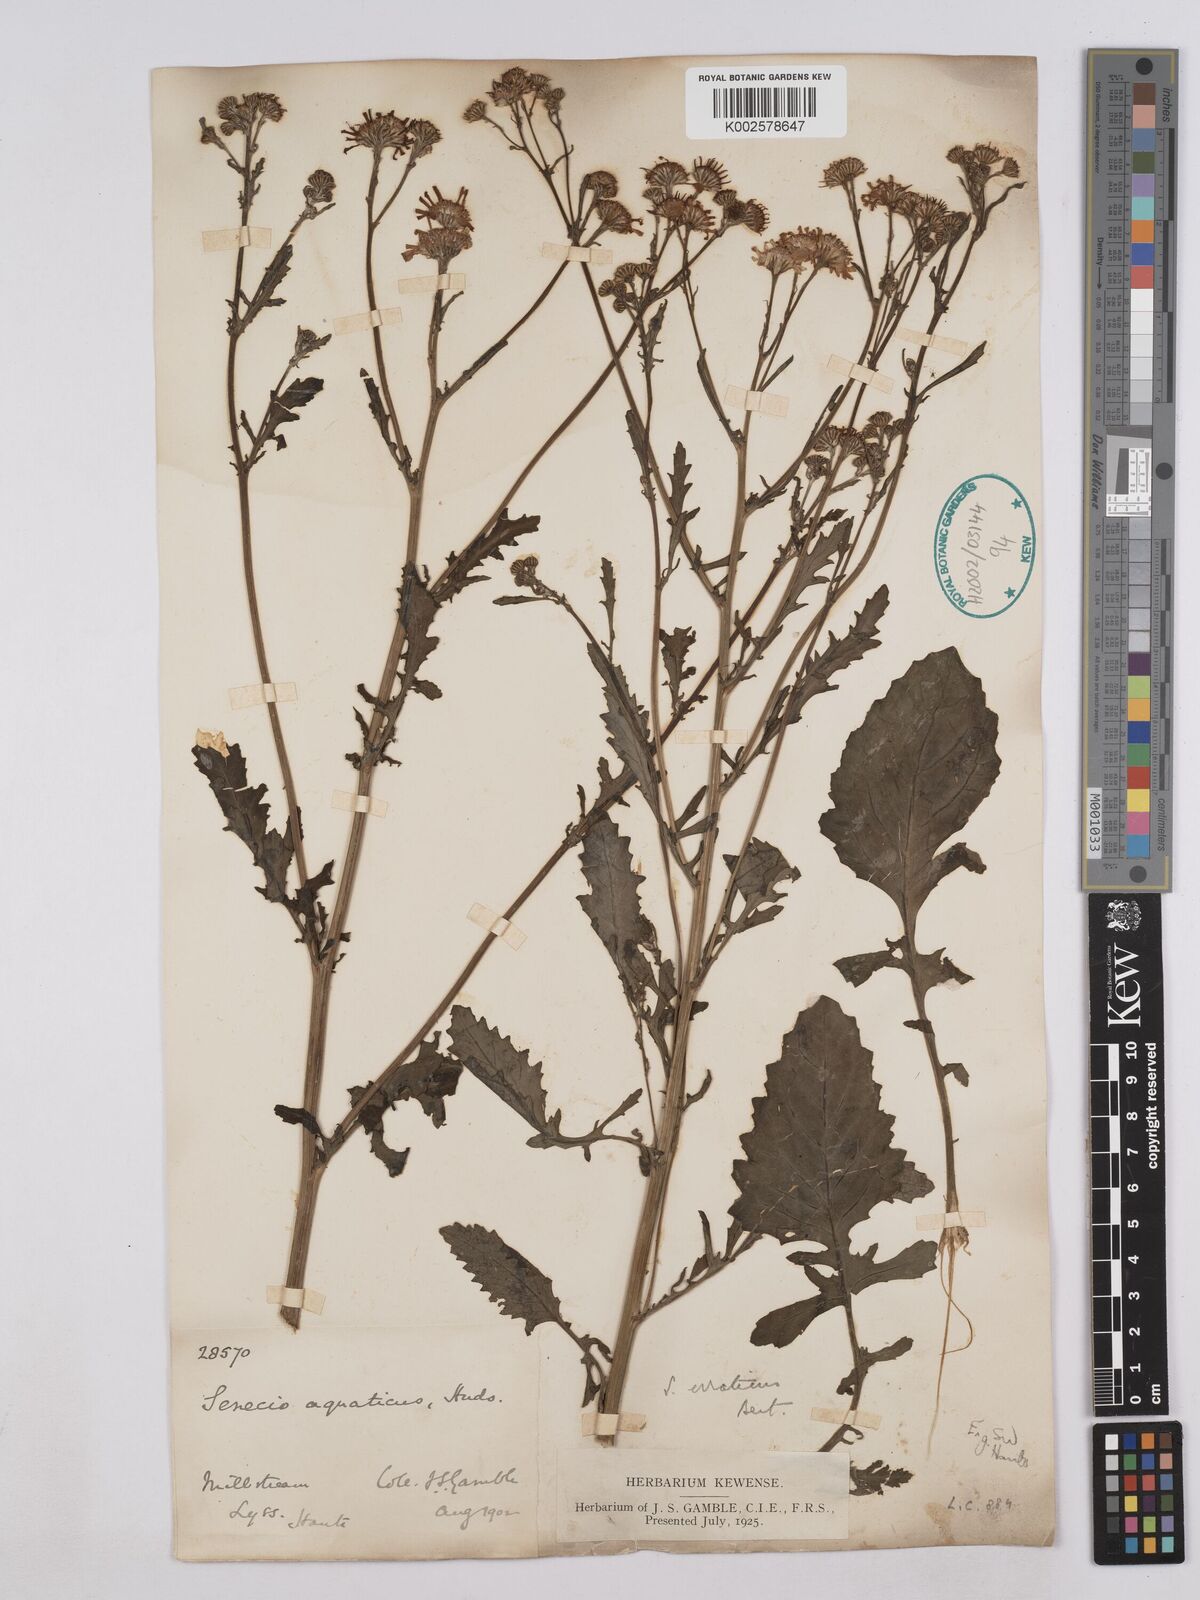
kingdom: Plantae
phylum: Tracheophyta
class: Magnoliopsida
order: Asterales
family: Asteraceae
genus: Jacobaea
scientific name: Jacobaea aquatica
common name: Water ragwort
